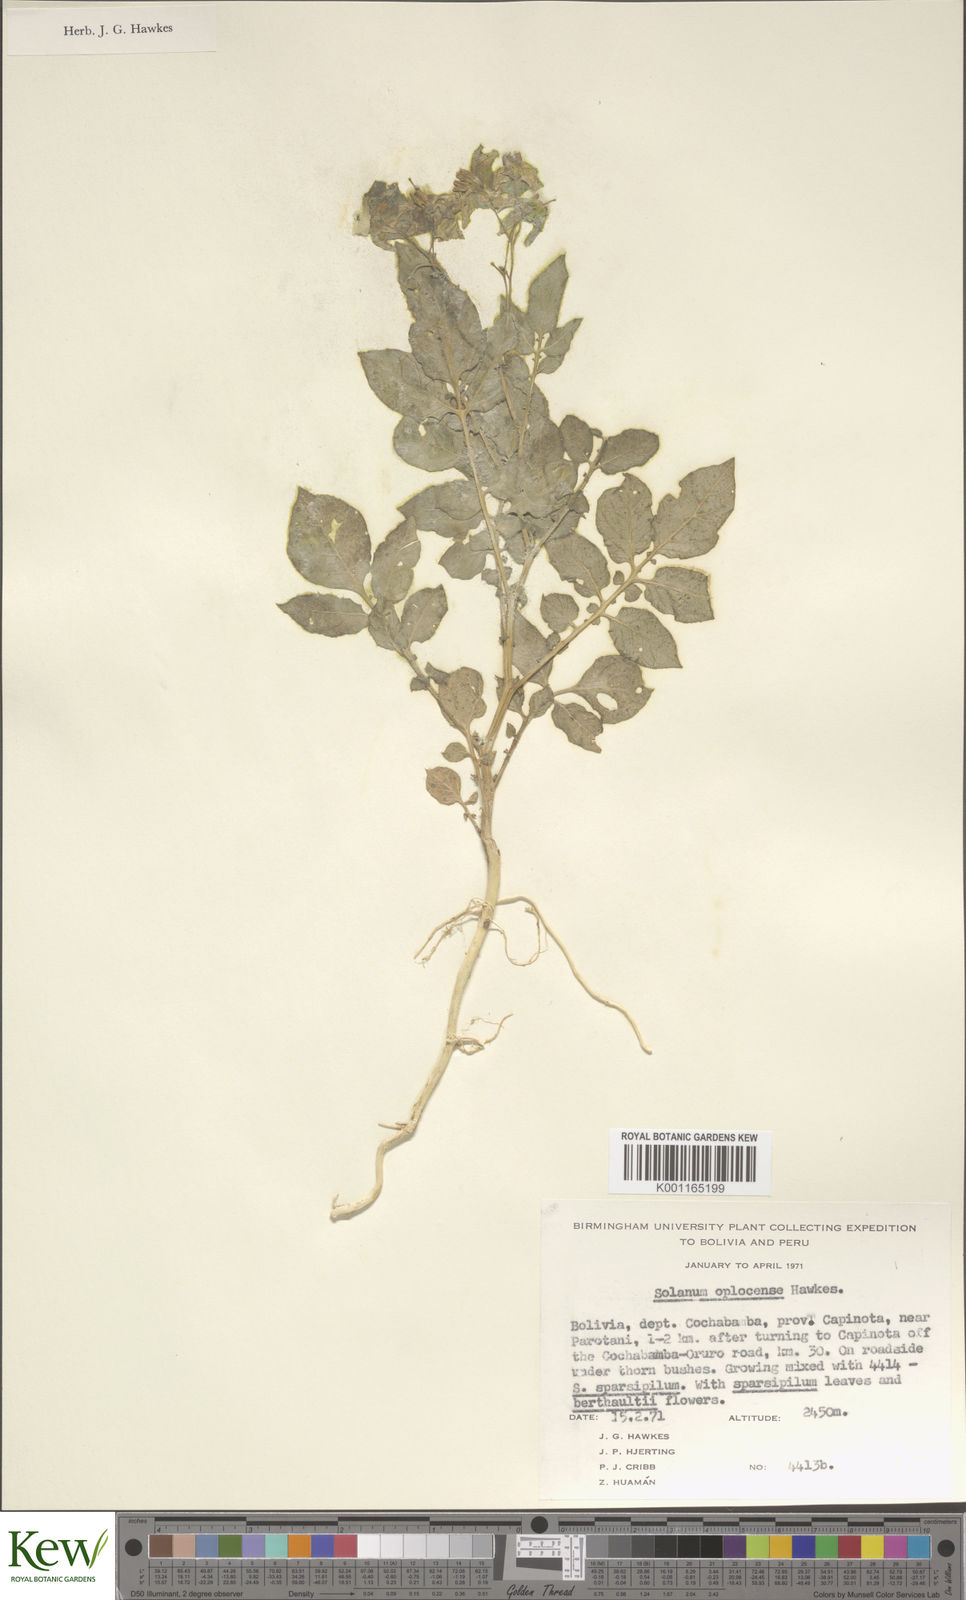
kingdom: Plantae
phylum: Tracheophyta
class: Magnoliopsida
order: Solanales
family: Solanaceae
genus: Solanum
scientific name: Solanum brevicaule
